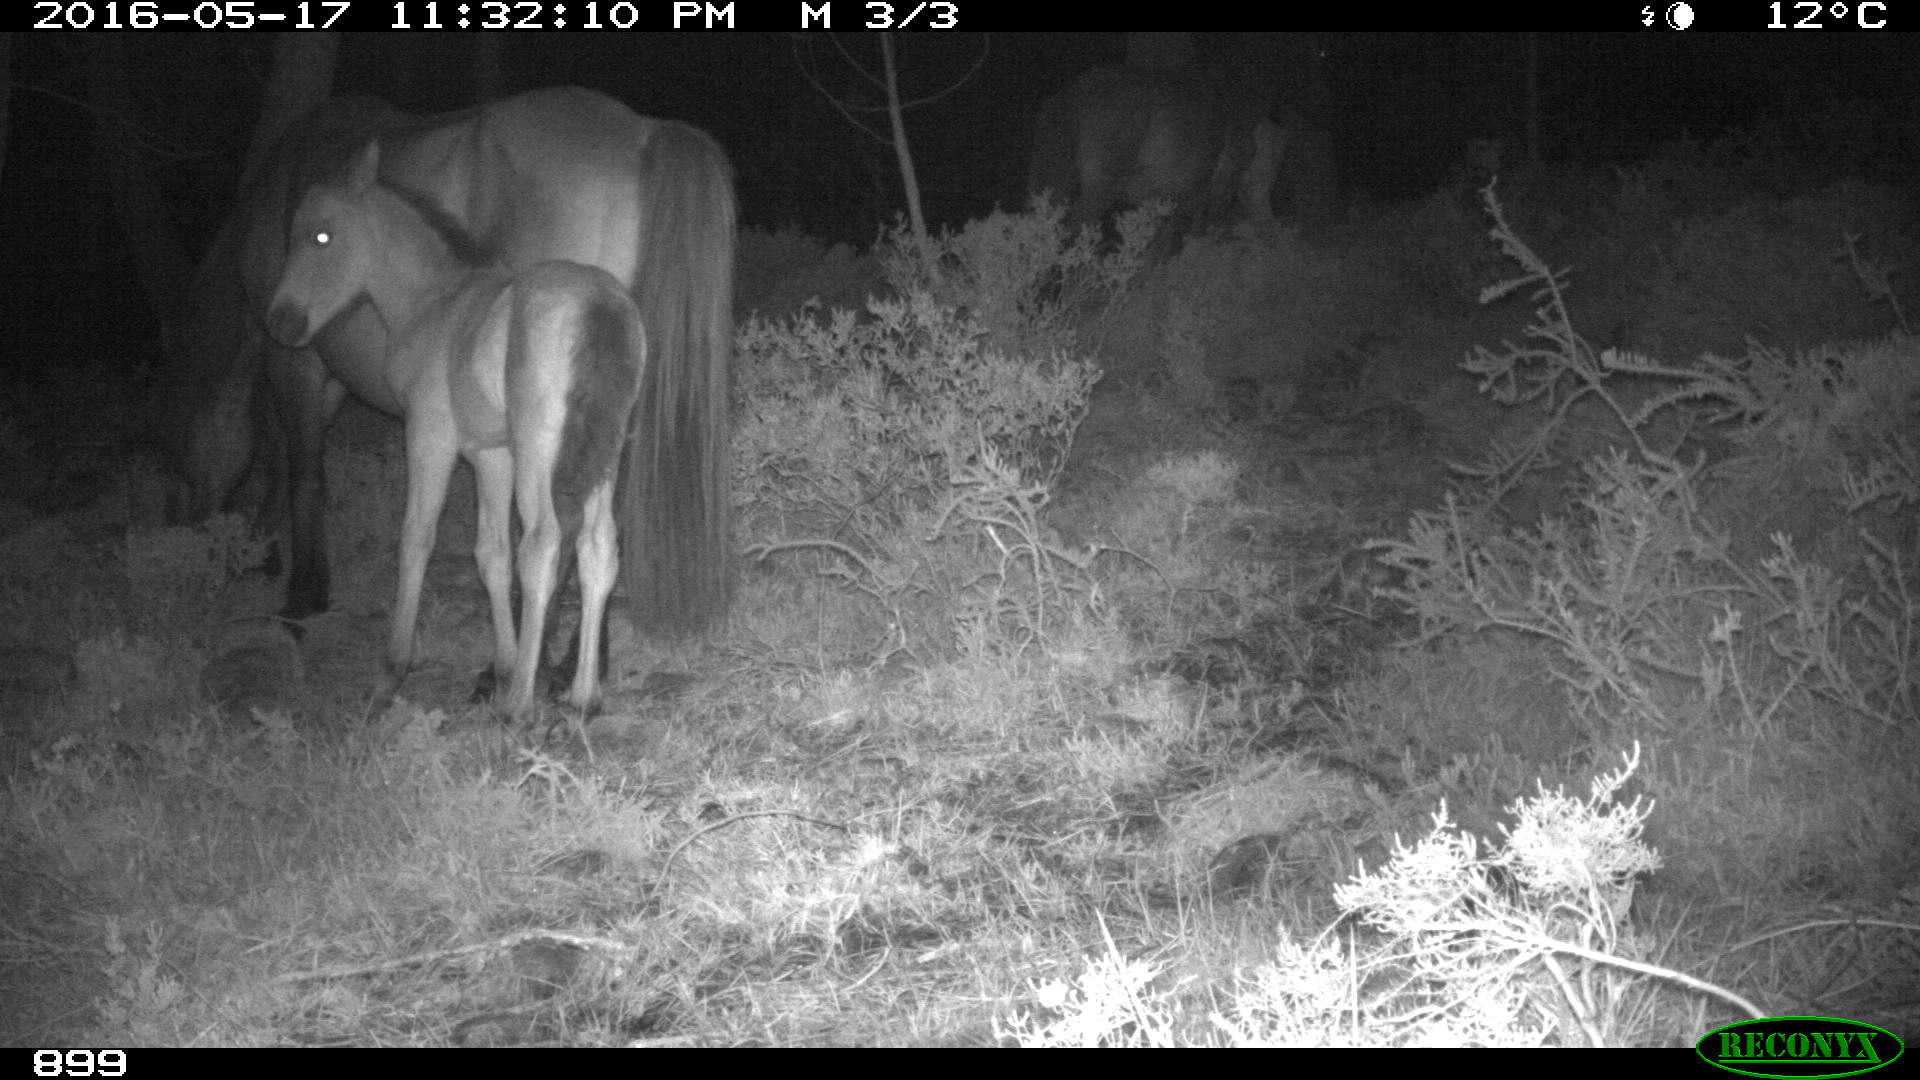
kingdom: Animalia
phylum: Chordata
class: Mammalia
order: Perissodactyla
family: Equidae
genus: Equus
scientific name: Equus caballus
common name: Horse
